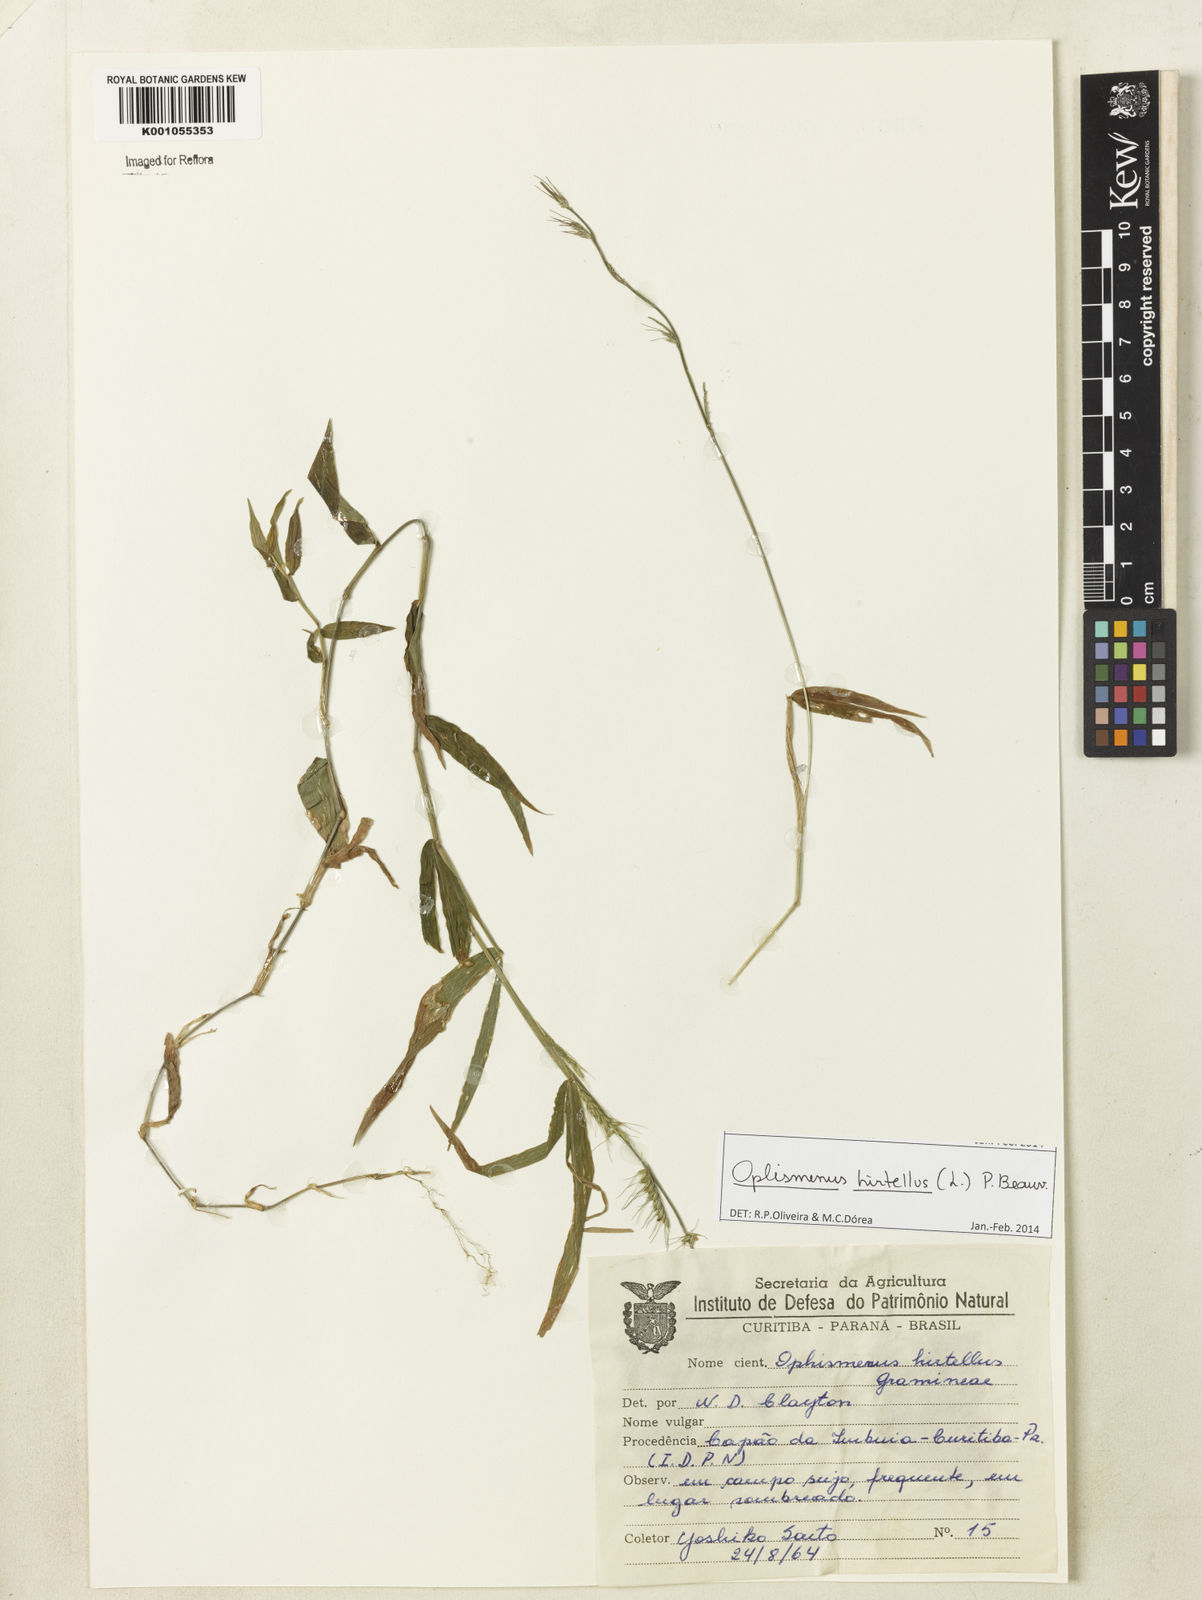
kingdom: Plantae
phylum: Tracheophyta
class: Liliopsida
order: Poales
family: Poaceae
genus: Oplismenus
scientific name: Oplismenus hirtellus
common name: Basketgrass
